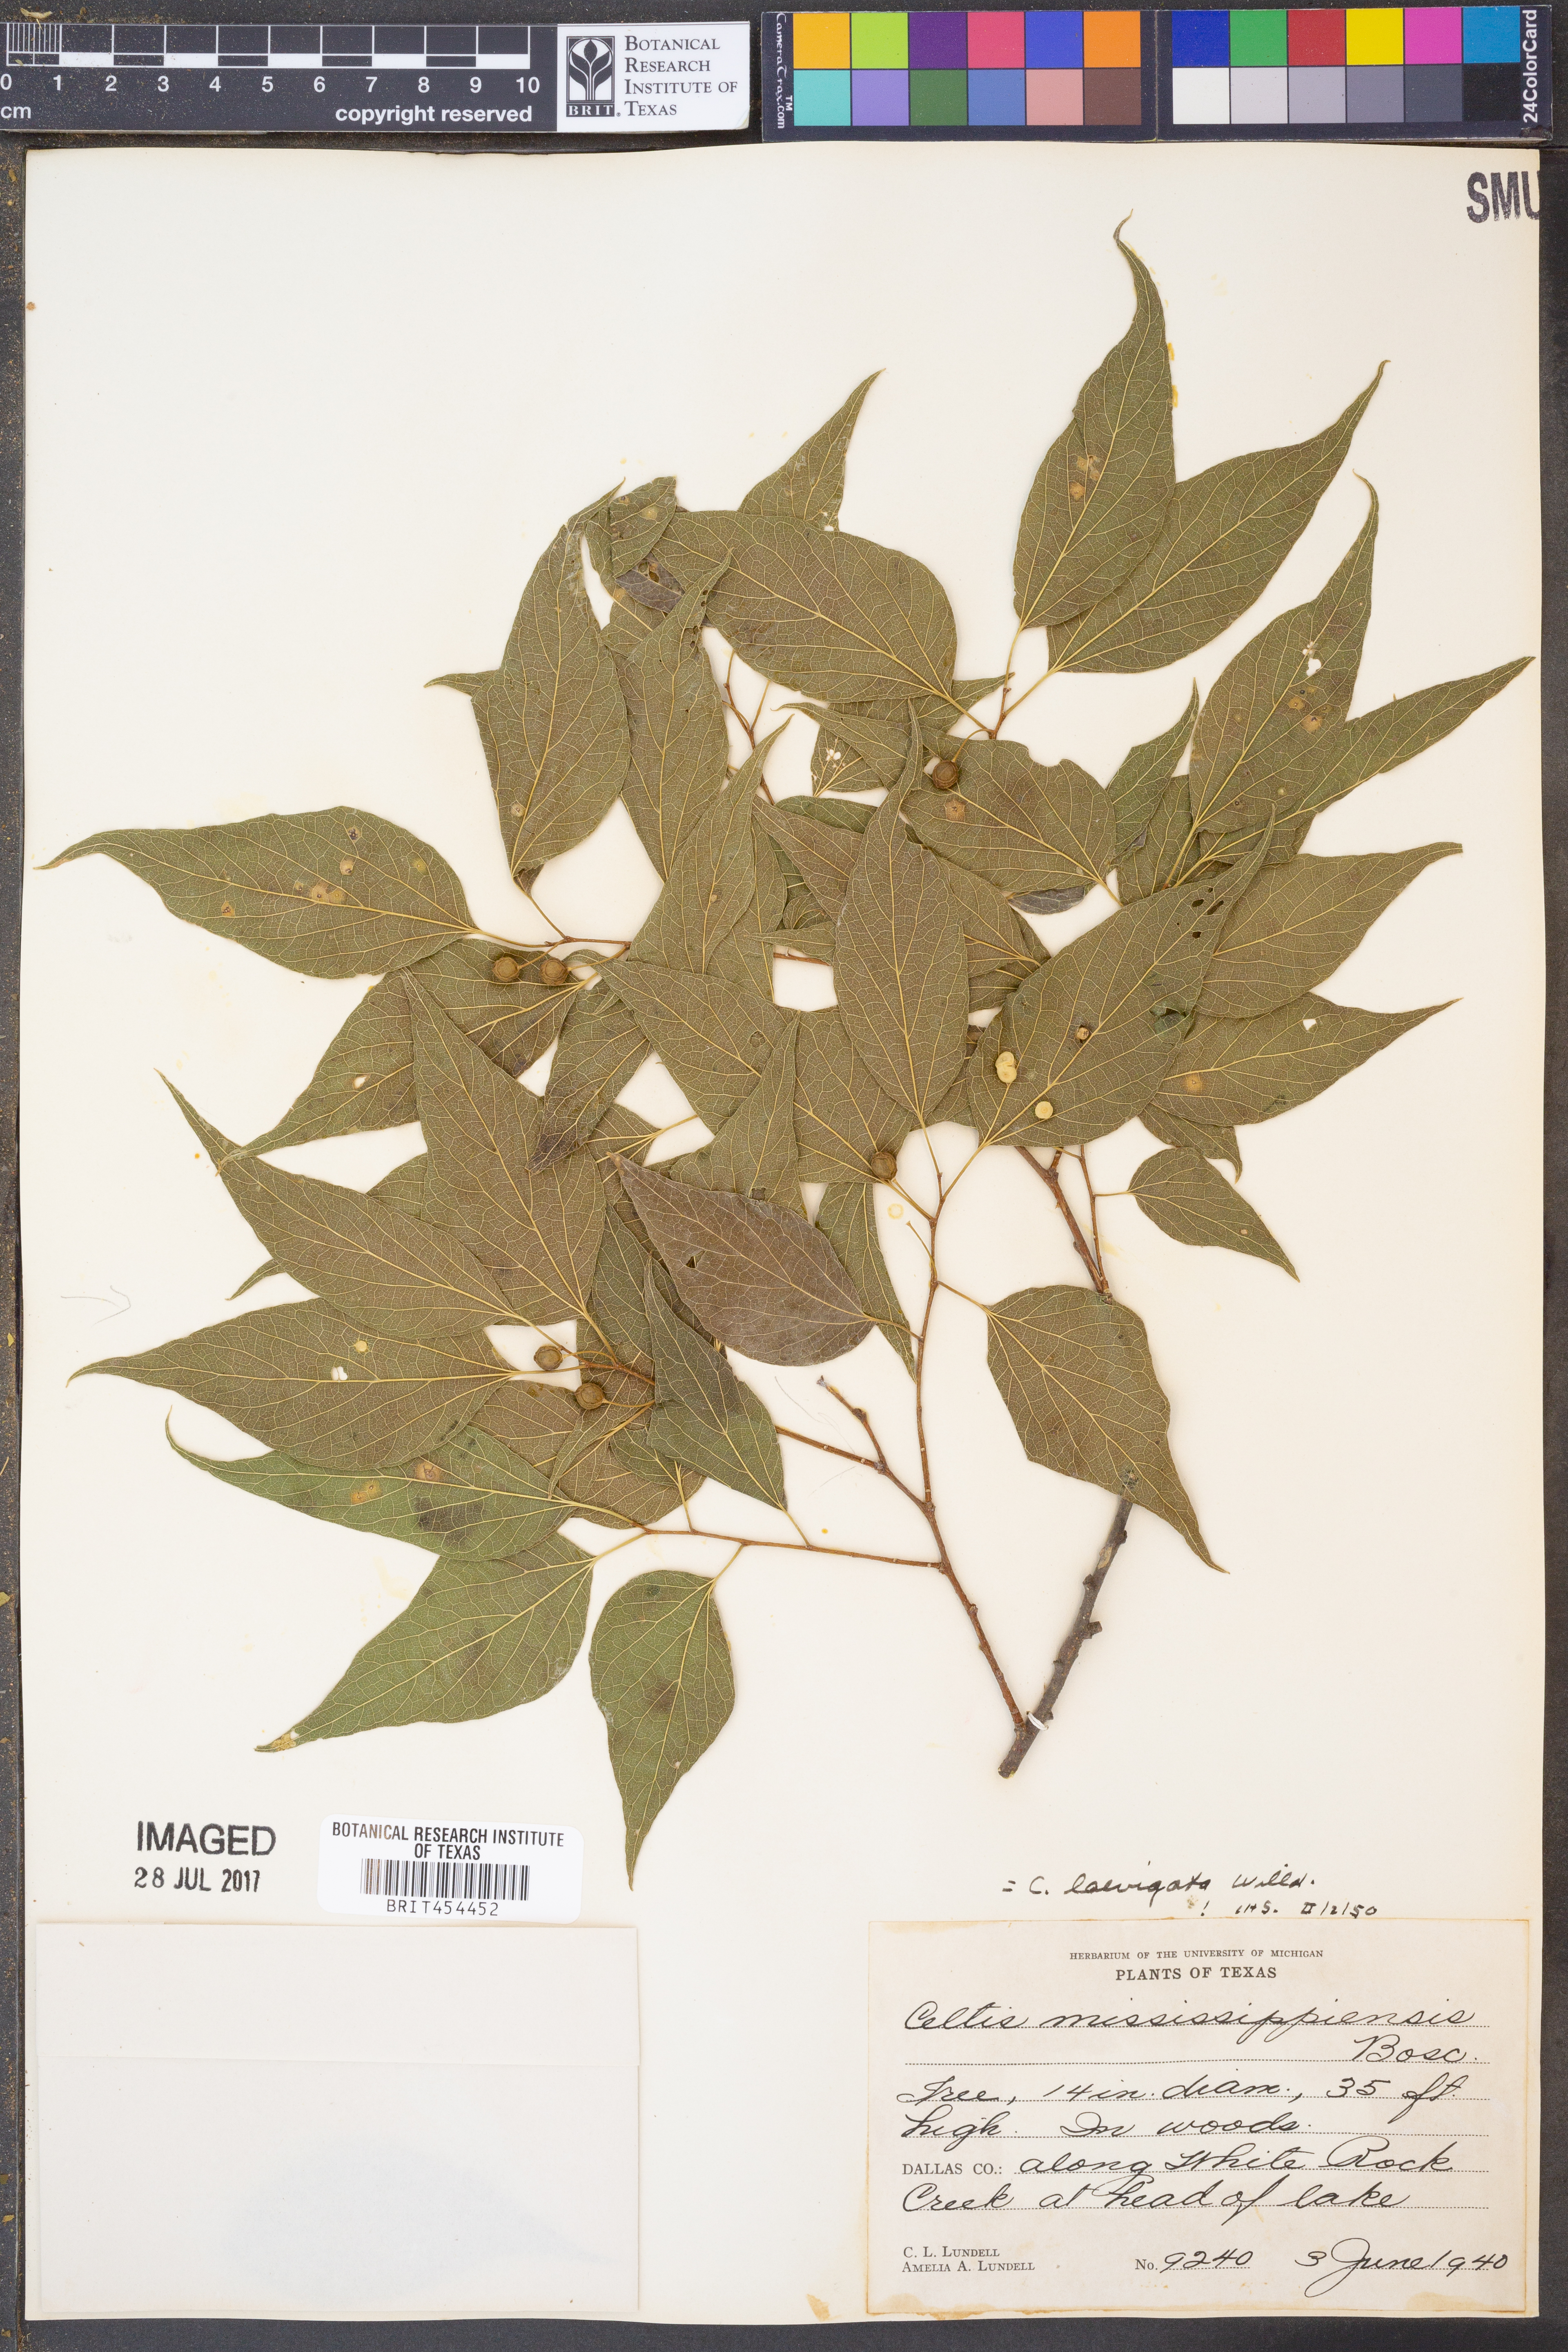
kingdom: Plantae
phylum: Tracheophyta
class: Magnoliopsida
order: Rosales
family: Cannabaceae
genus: Celtis
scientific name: Celtis laevigata
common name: Sugarberry
